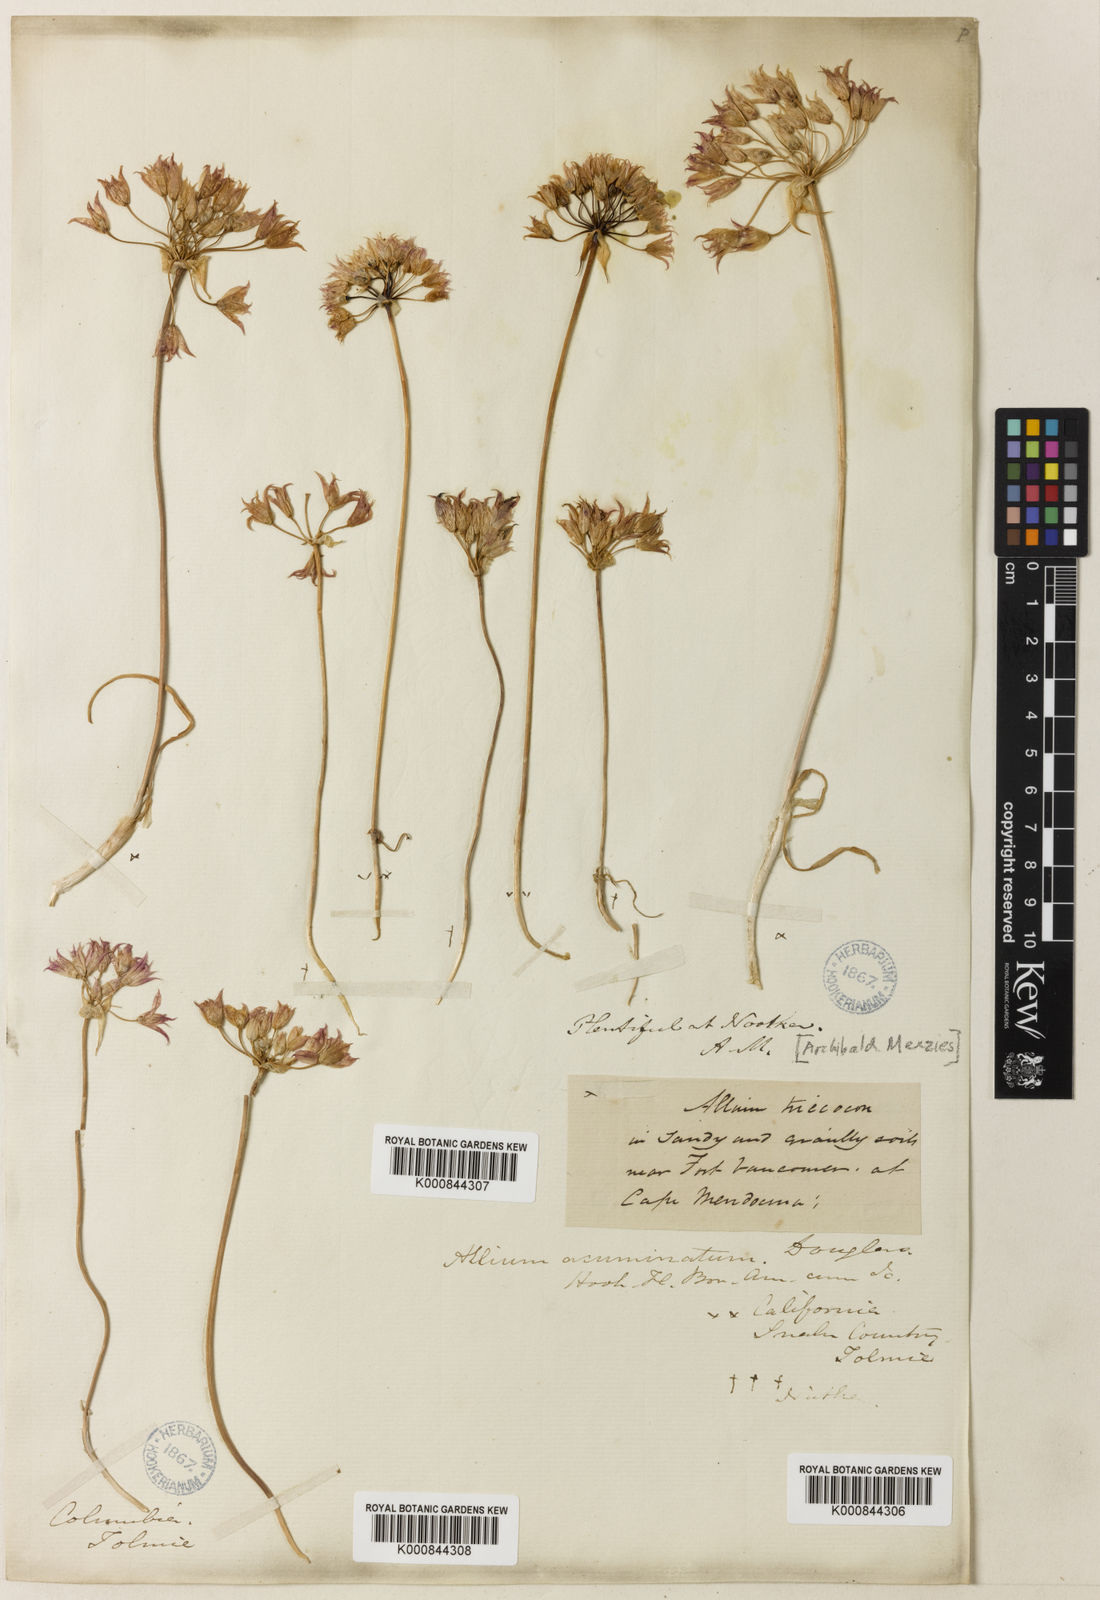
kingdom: Plantae
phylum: Tracheophyta
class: Liliopsida
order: Asparagales
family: Amaryllidaceae
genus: Allium
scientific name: Allium
